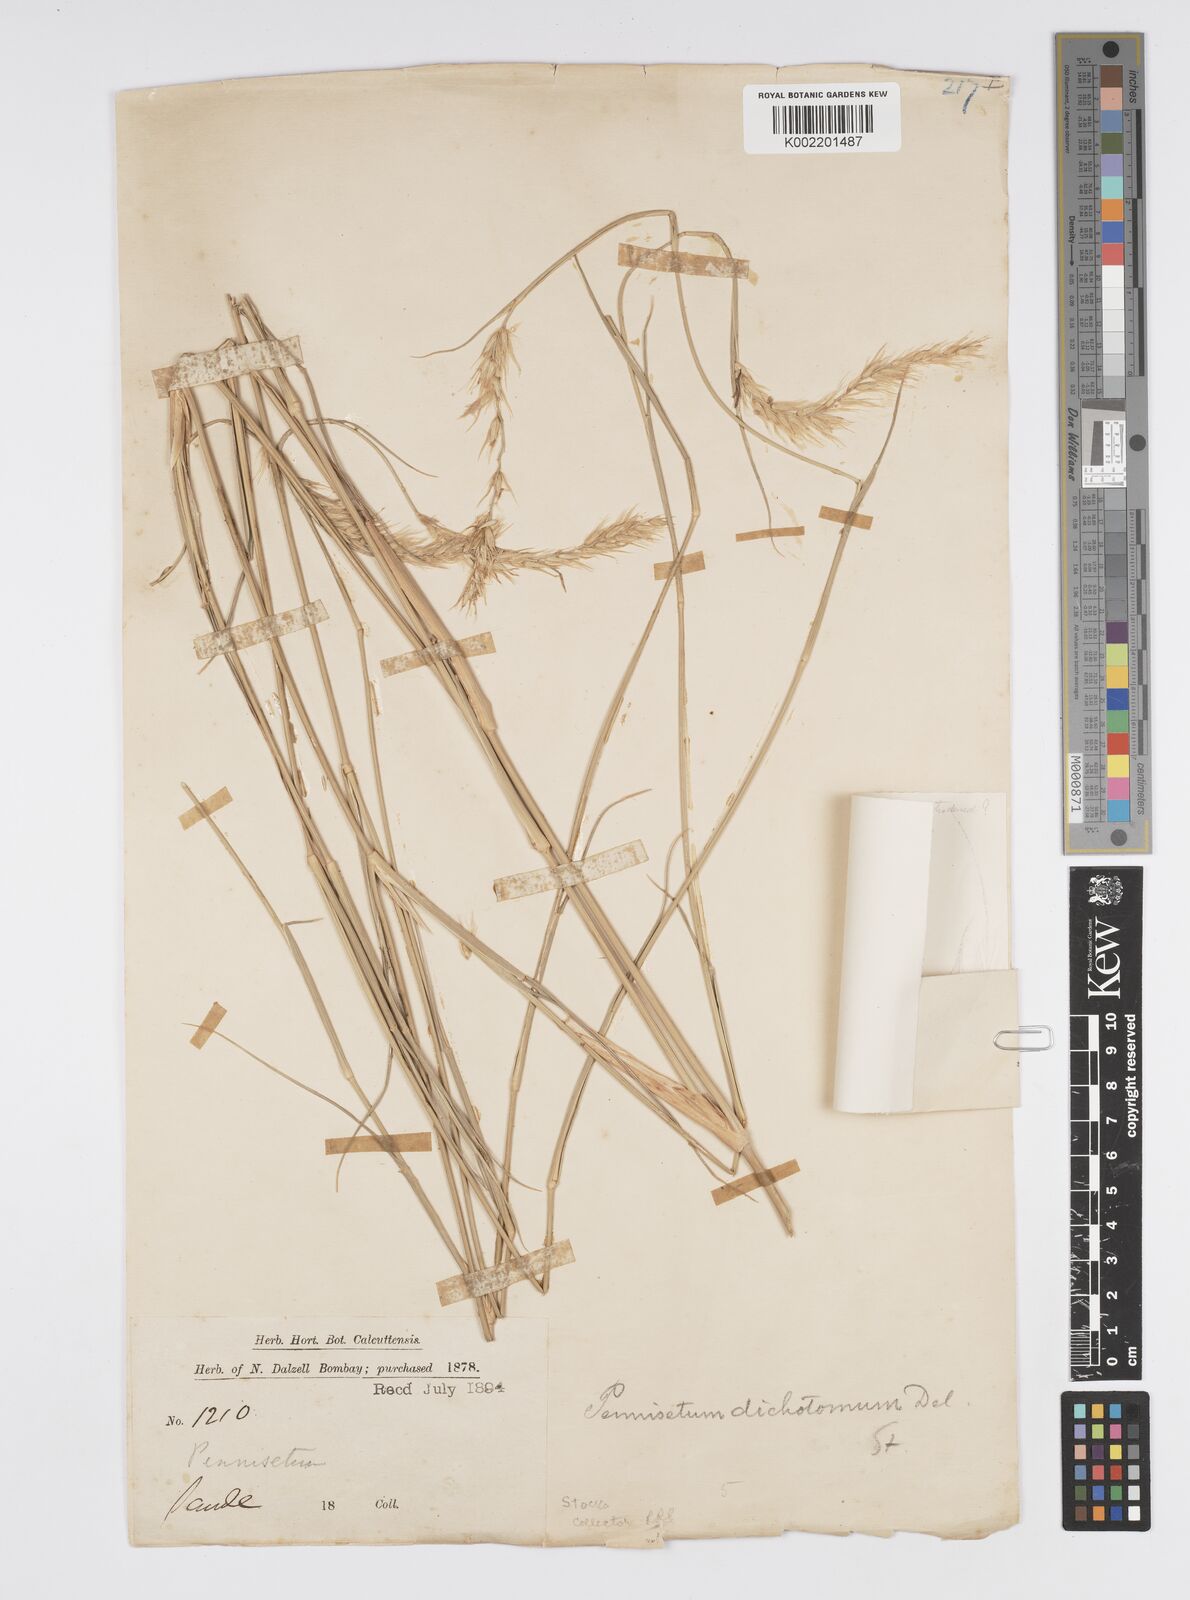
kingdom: Plantae
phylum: Tracheophyta
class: Liliopsida
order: Poales
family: Poaceae
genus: Cenchrus
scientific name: Cenchrus divisus
